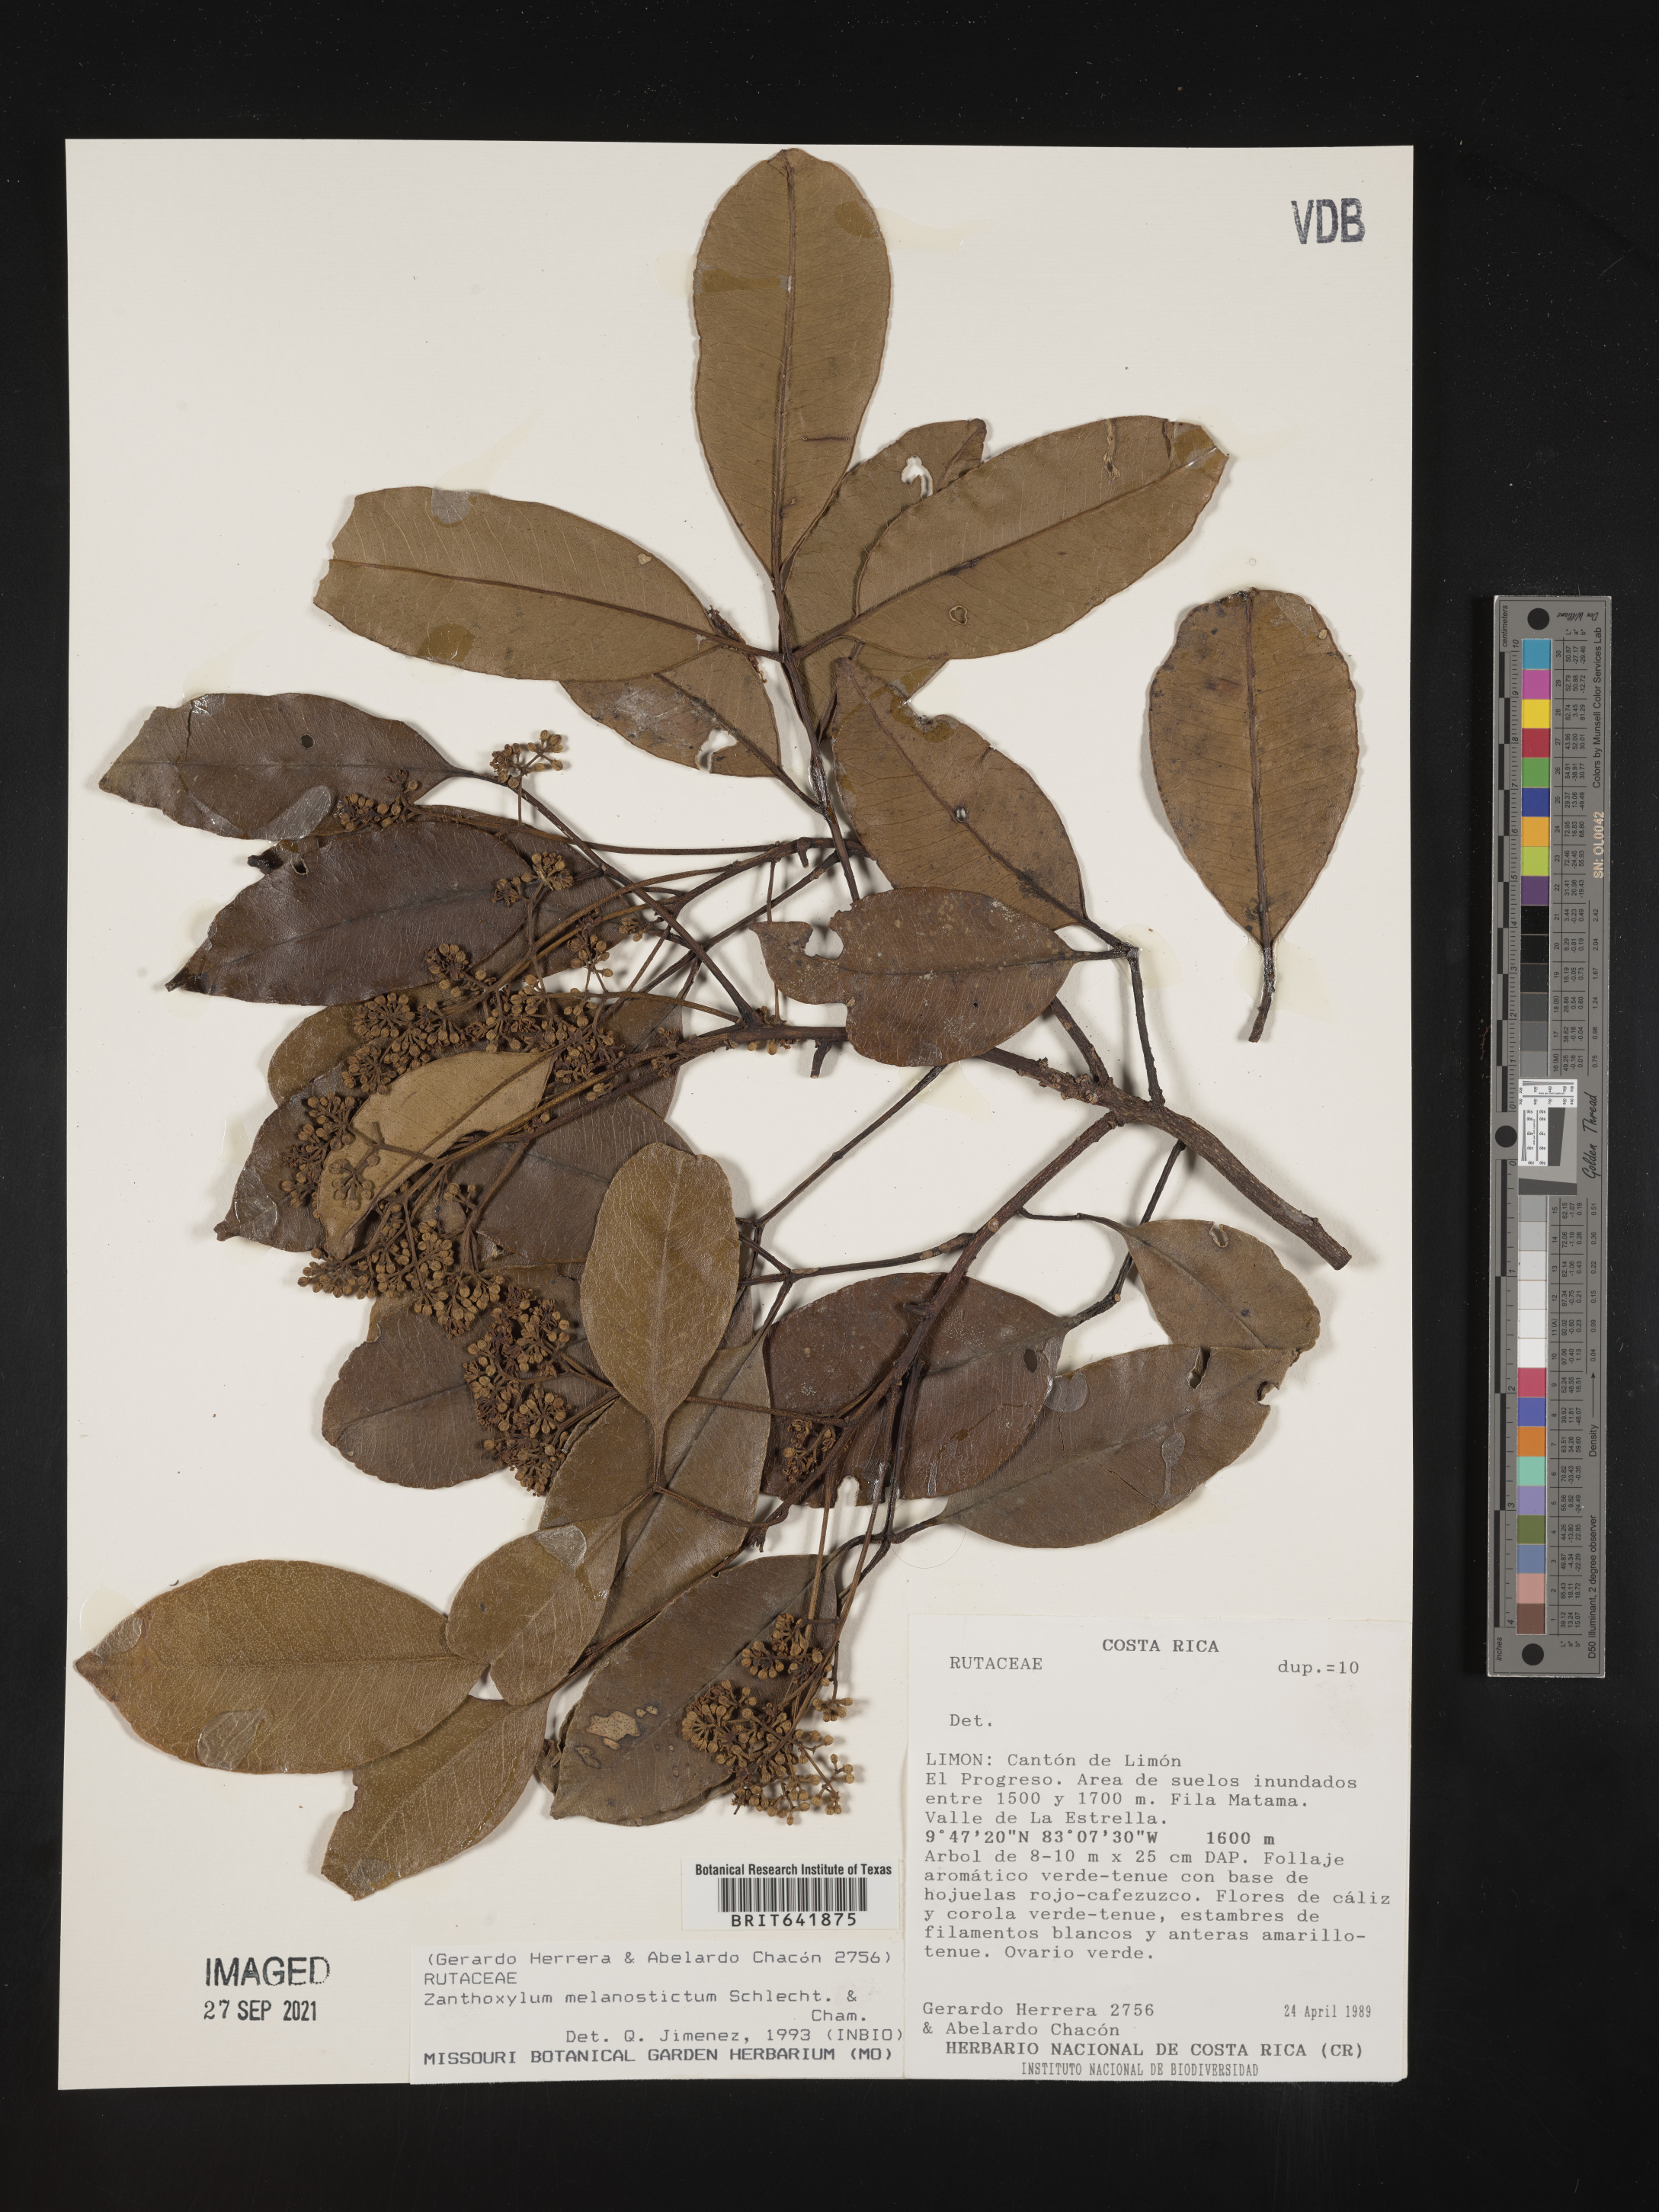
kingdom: Plantae
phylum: Tracheophyta
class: Magnoliopsida
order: Sapindales
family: Rutaceae
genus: Zanthoxylum
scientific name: Zanthoxylum
